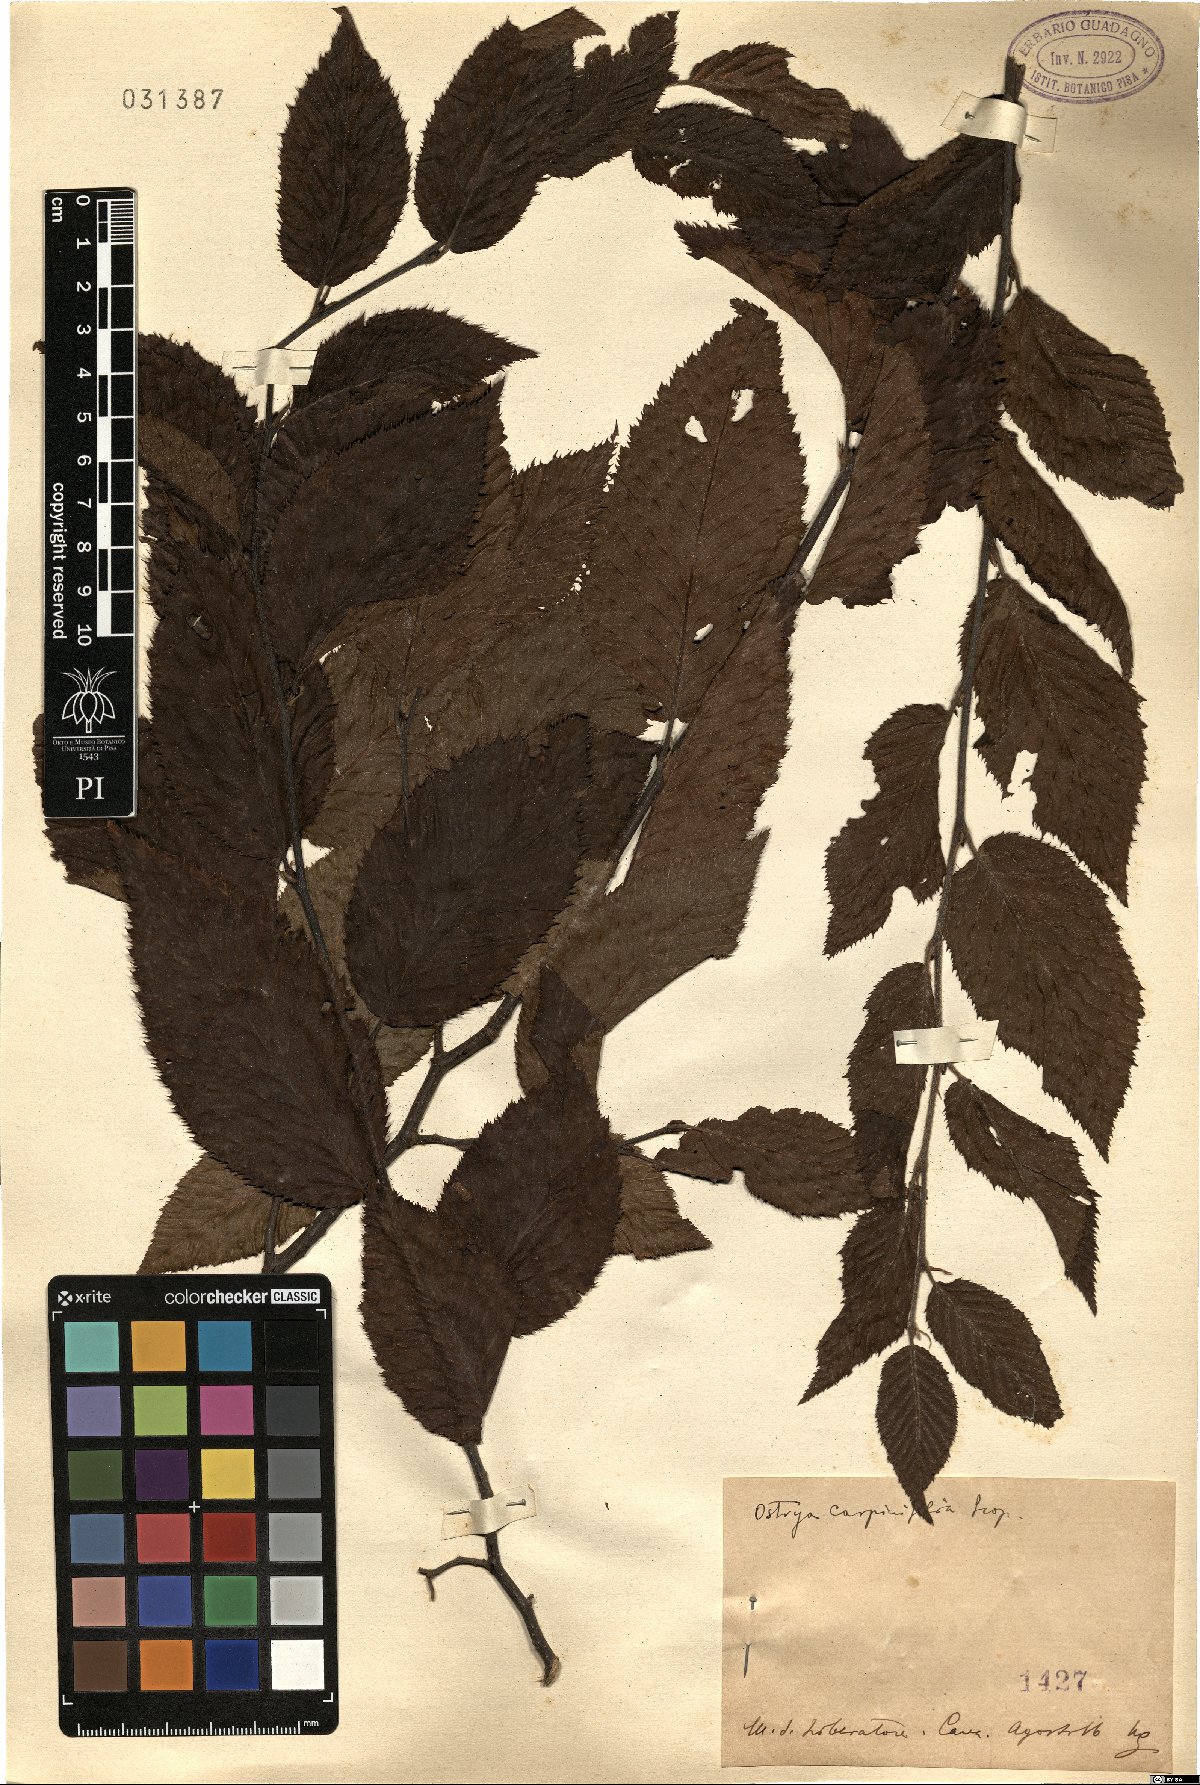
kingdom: Plantae
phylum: Tracheophyta
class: Magnoliopsida
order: Fagales
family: Betulaceae
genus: Ostrya
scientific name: Ostrya carpinifolia
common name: European hop-hornbeam
